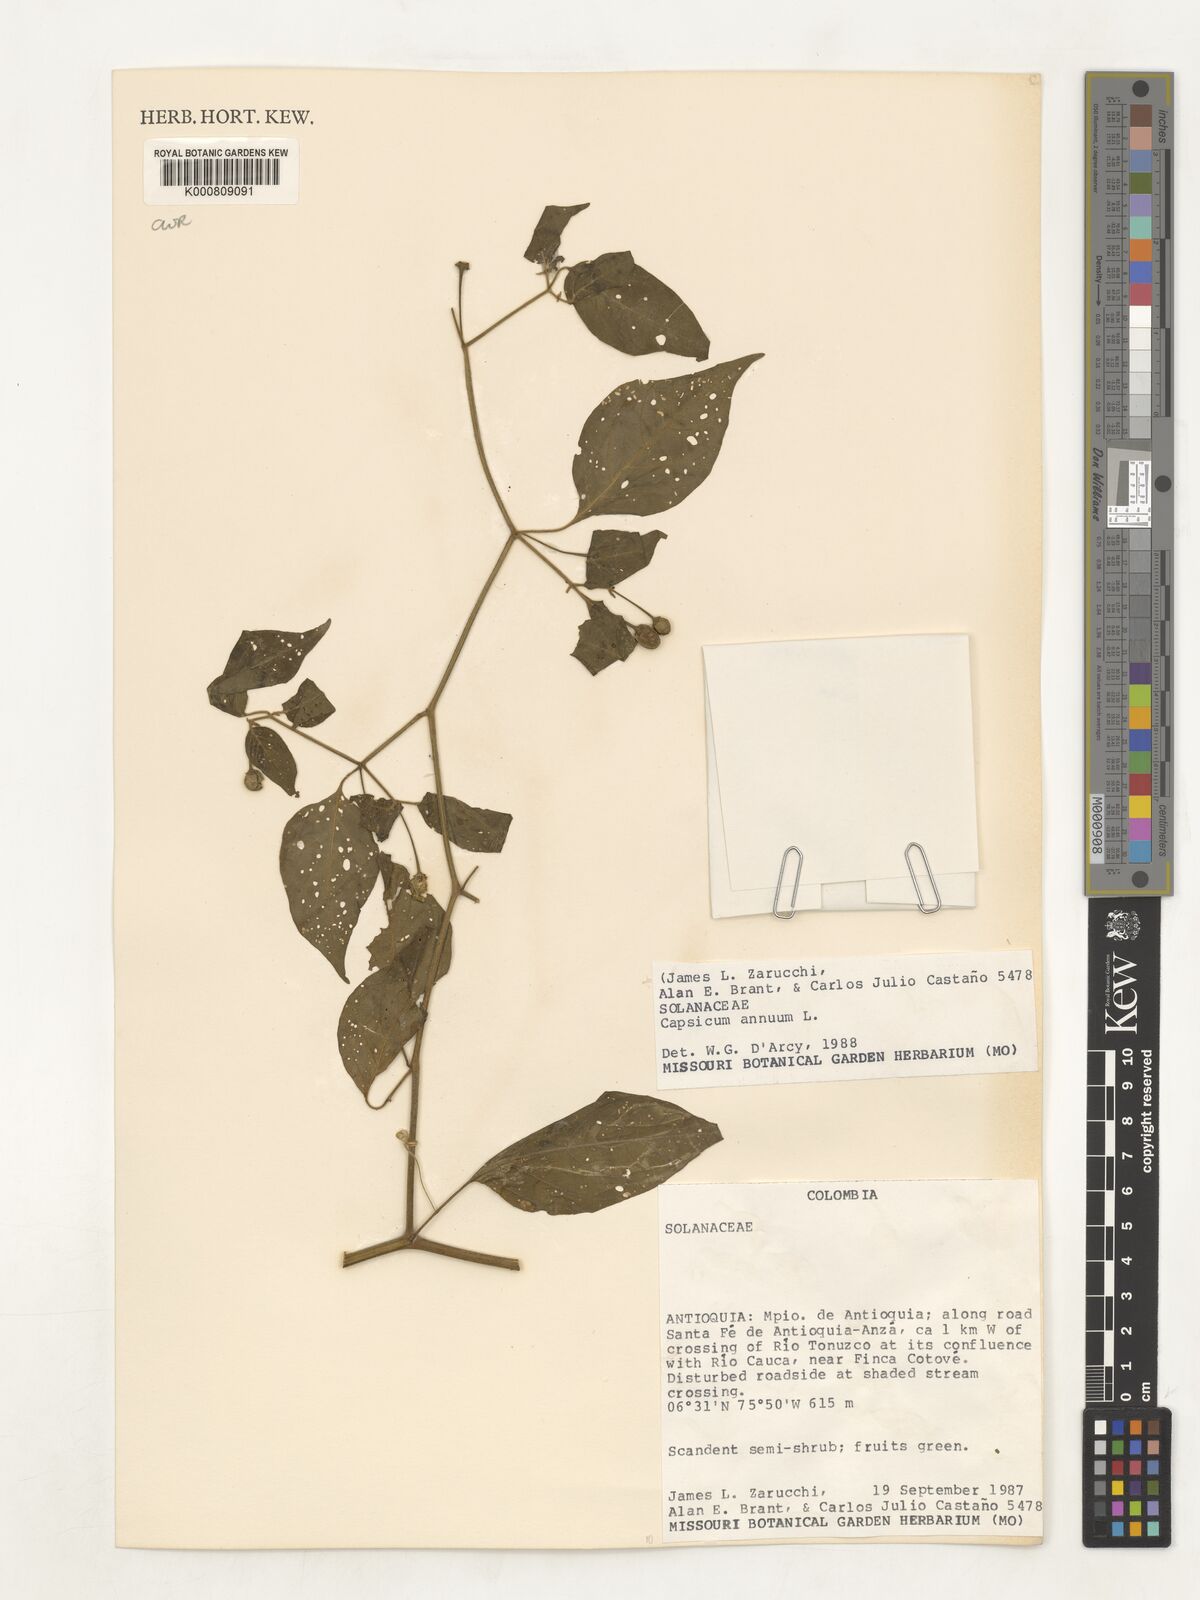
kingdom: Plantae
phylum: Tracheophyta
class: Magnoliopsida
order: Solanales
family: Solanaceae
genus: Capsicum
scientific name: Capsicum annuum
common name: Sweet pepper
